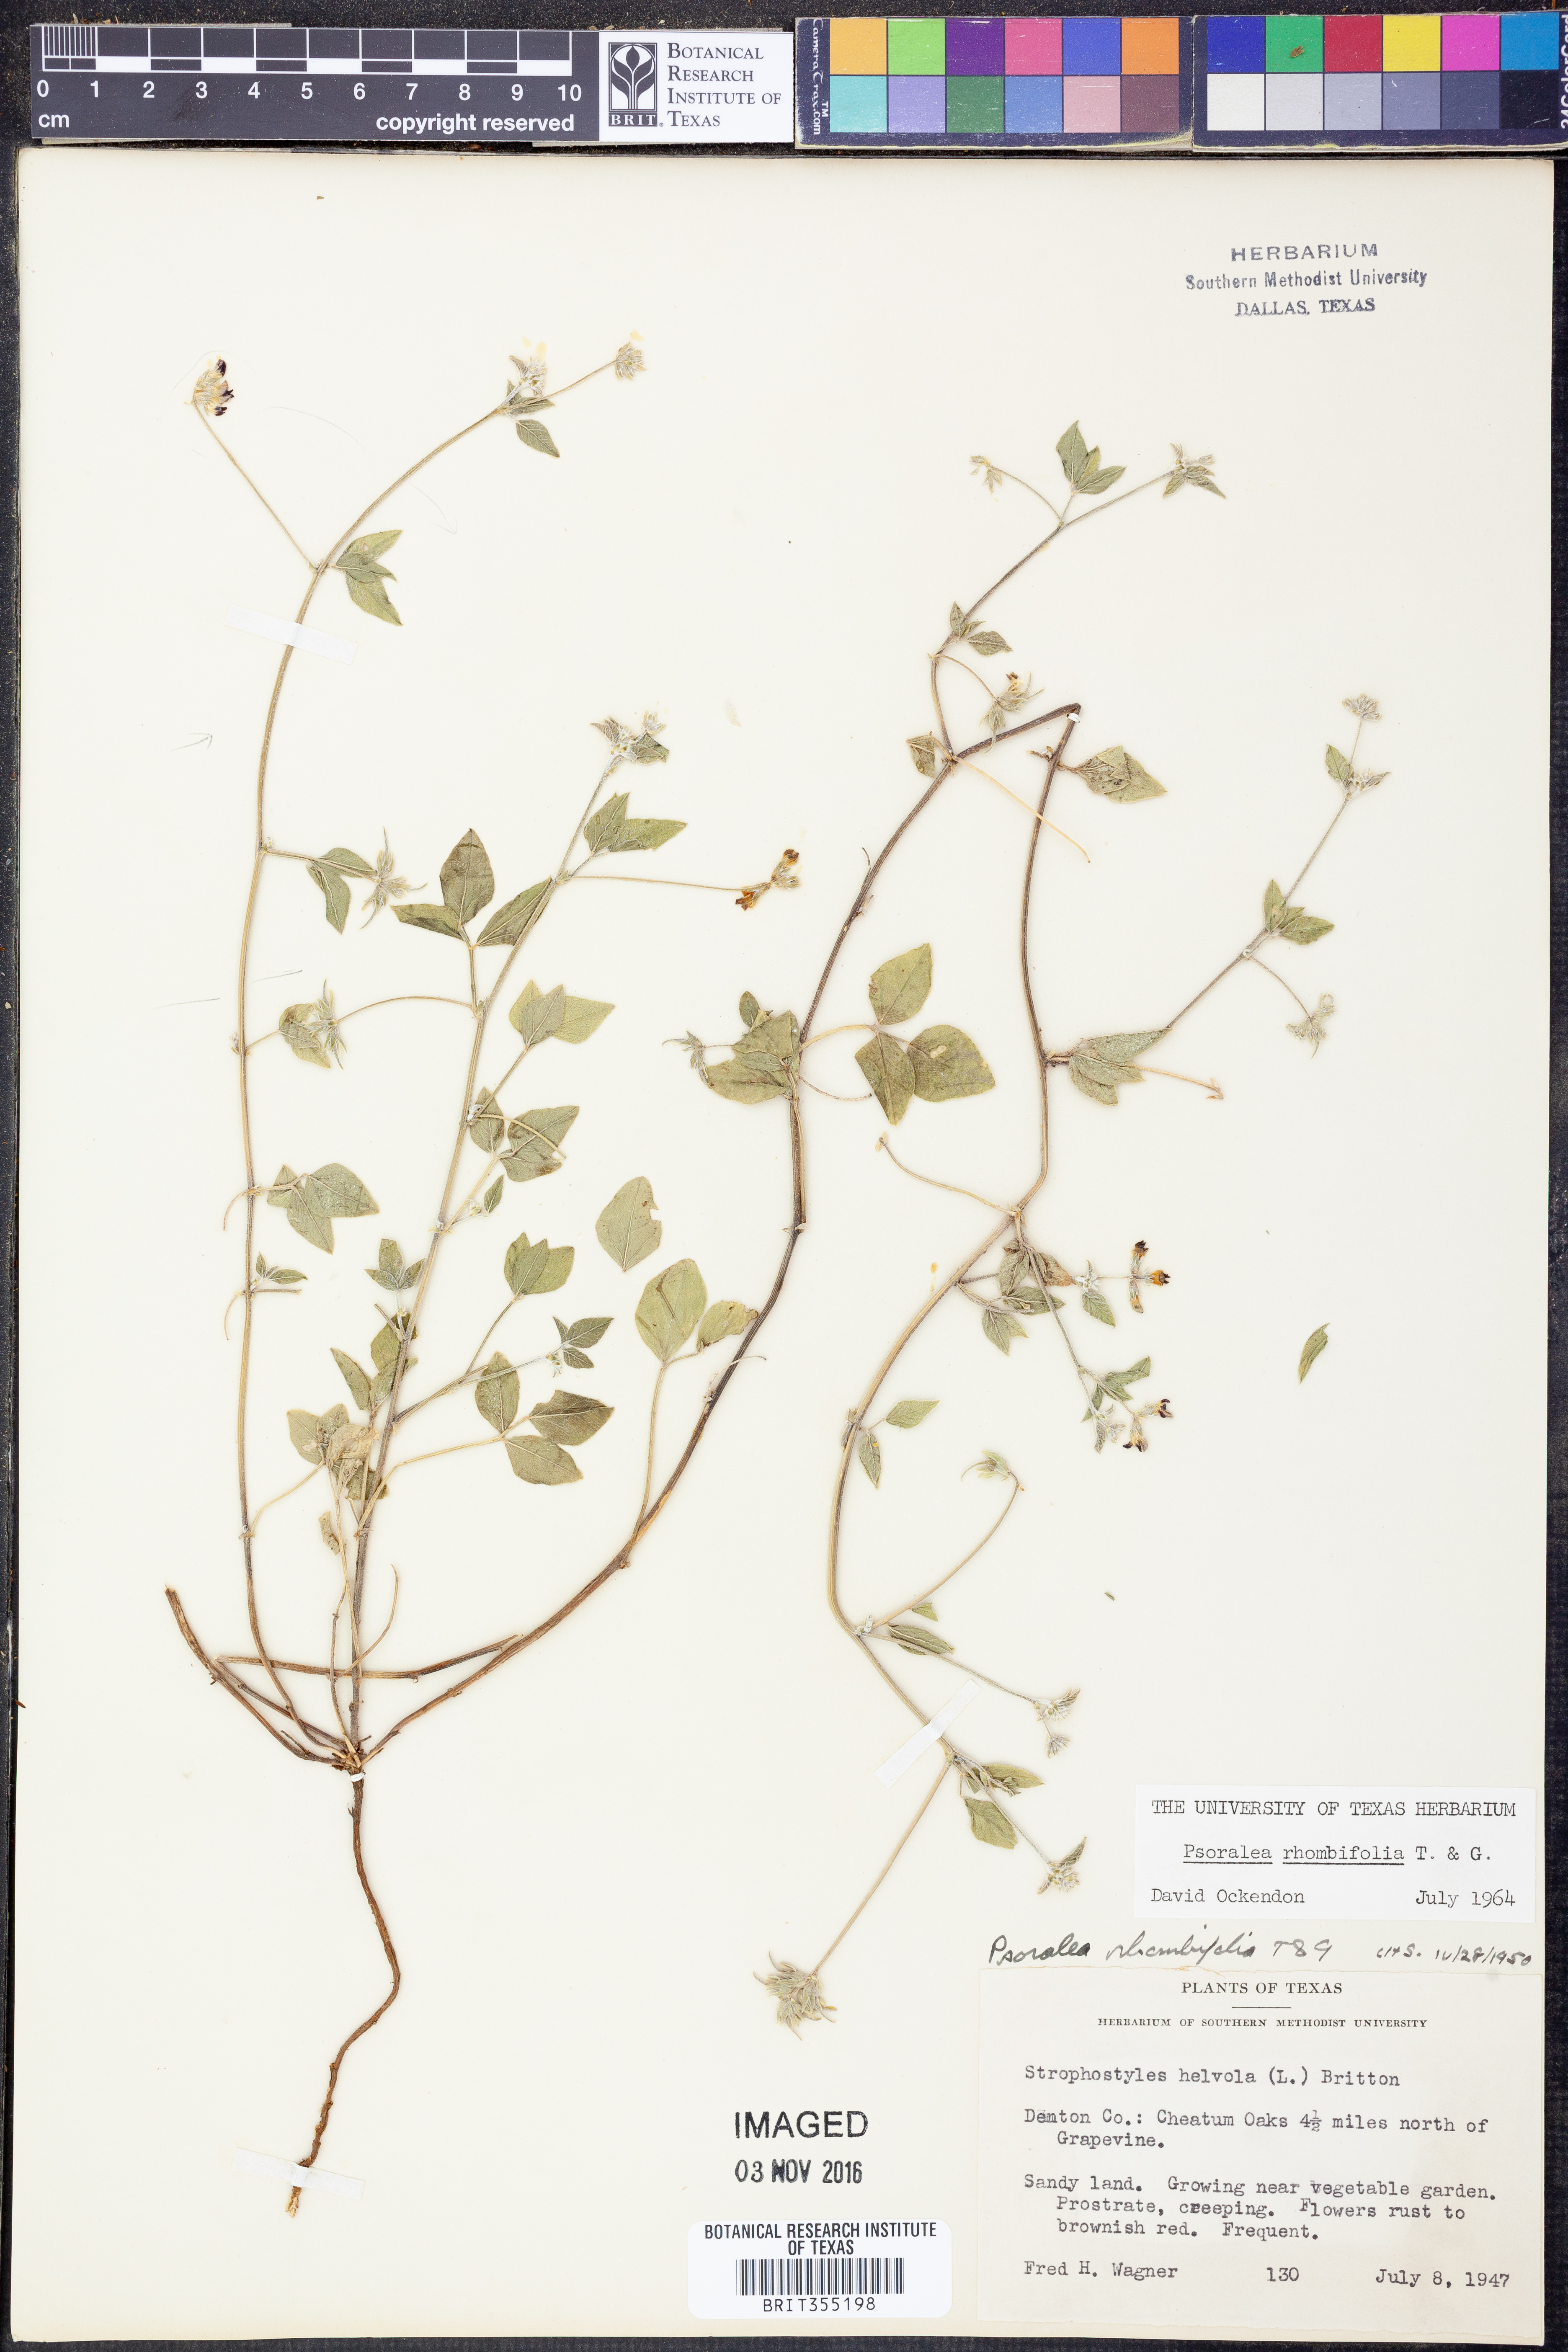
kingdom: Plantae
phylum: Tracheophyta
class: Magnoliopsida
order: Fabales
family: Fabaceae
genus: Pediomelum
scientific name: Pediomelum rhombifolium
